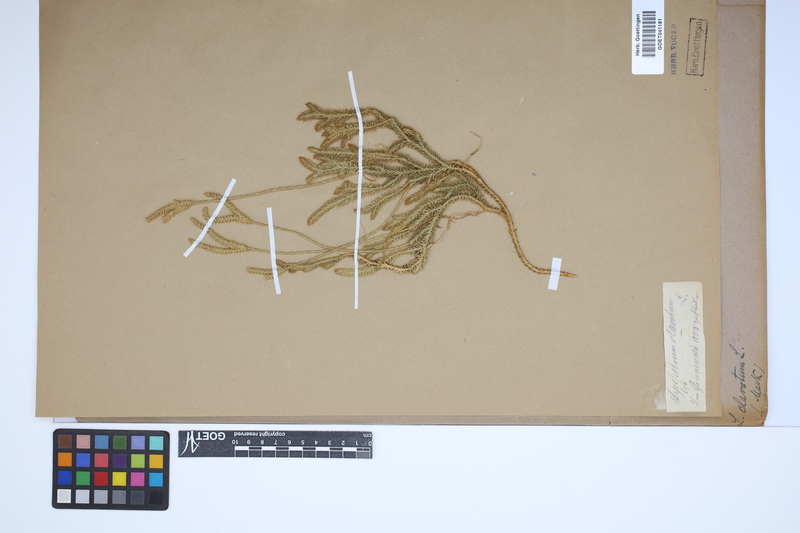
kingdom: Plantae
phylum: Tracheophyta
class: Lycopodiopsida
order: Lycopodiales
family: Lycopodiaceae
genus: Lycopodium
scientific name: Lycopodium clavatum
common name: Stag's-horn clubmoss
